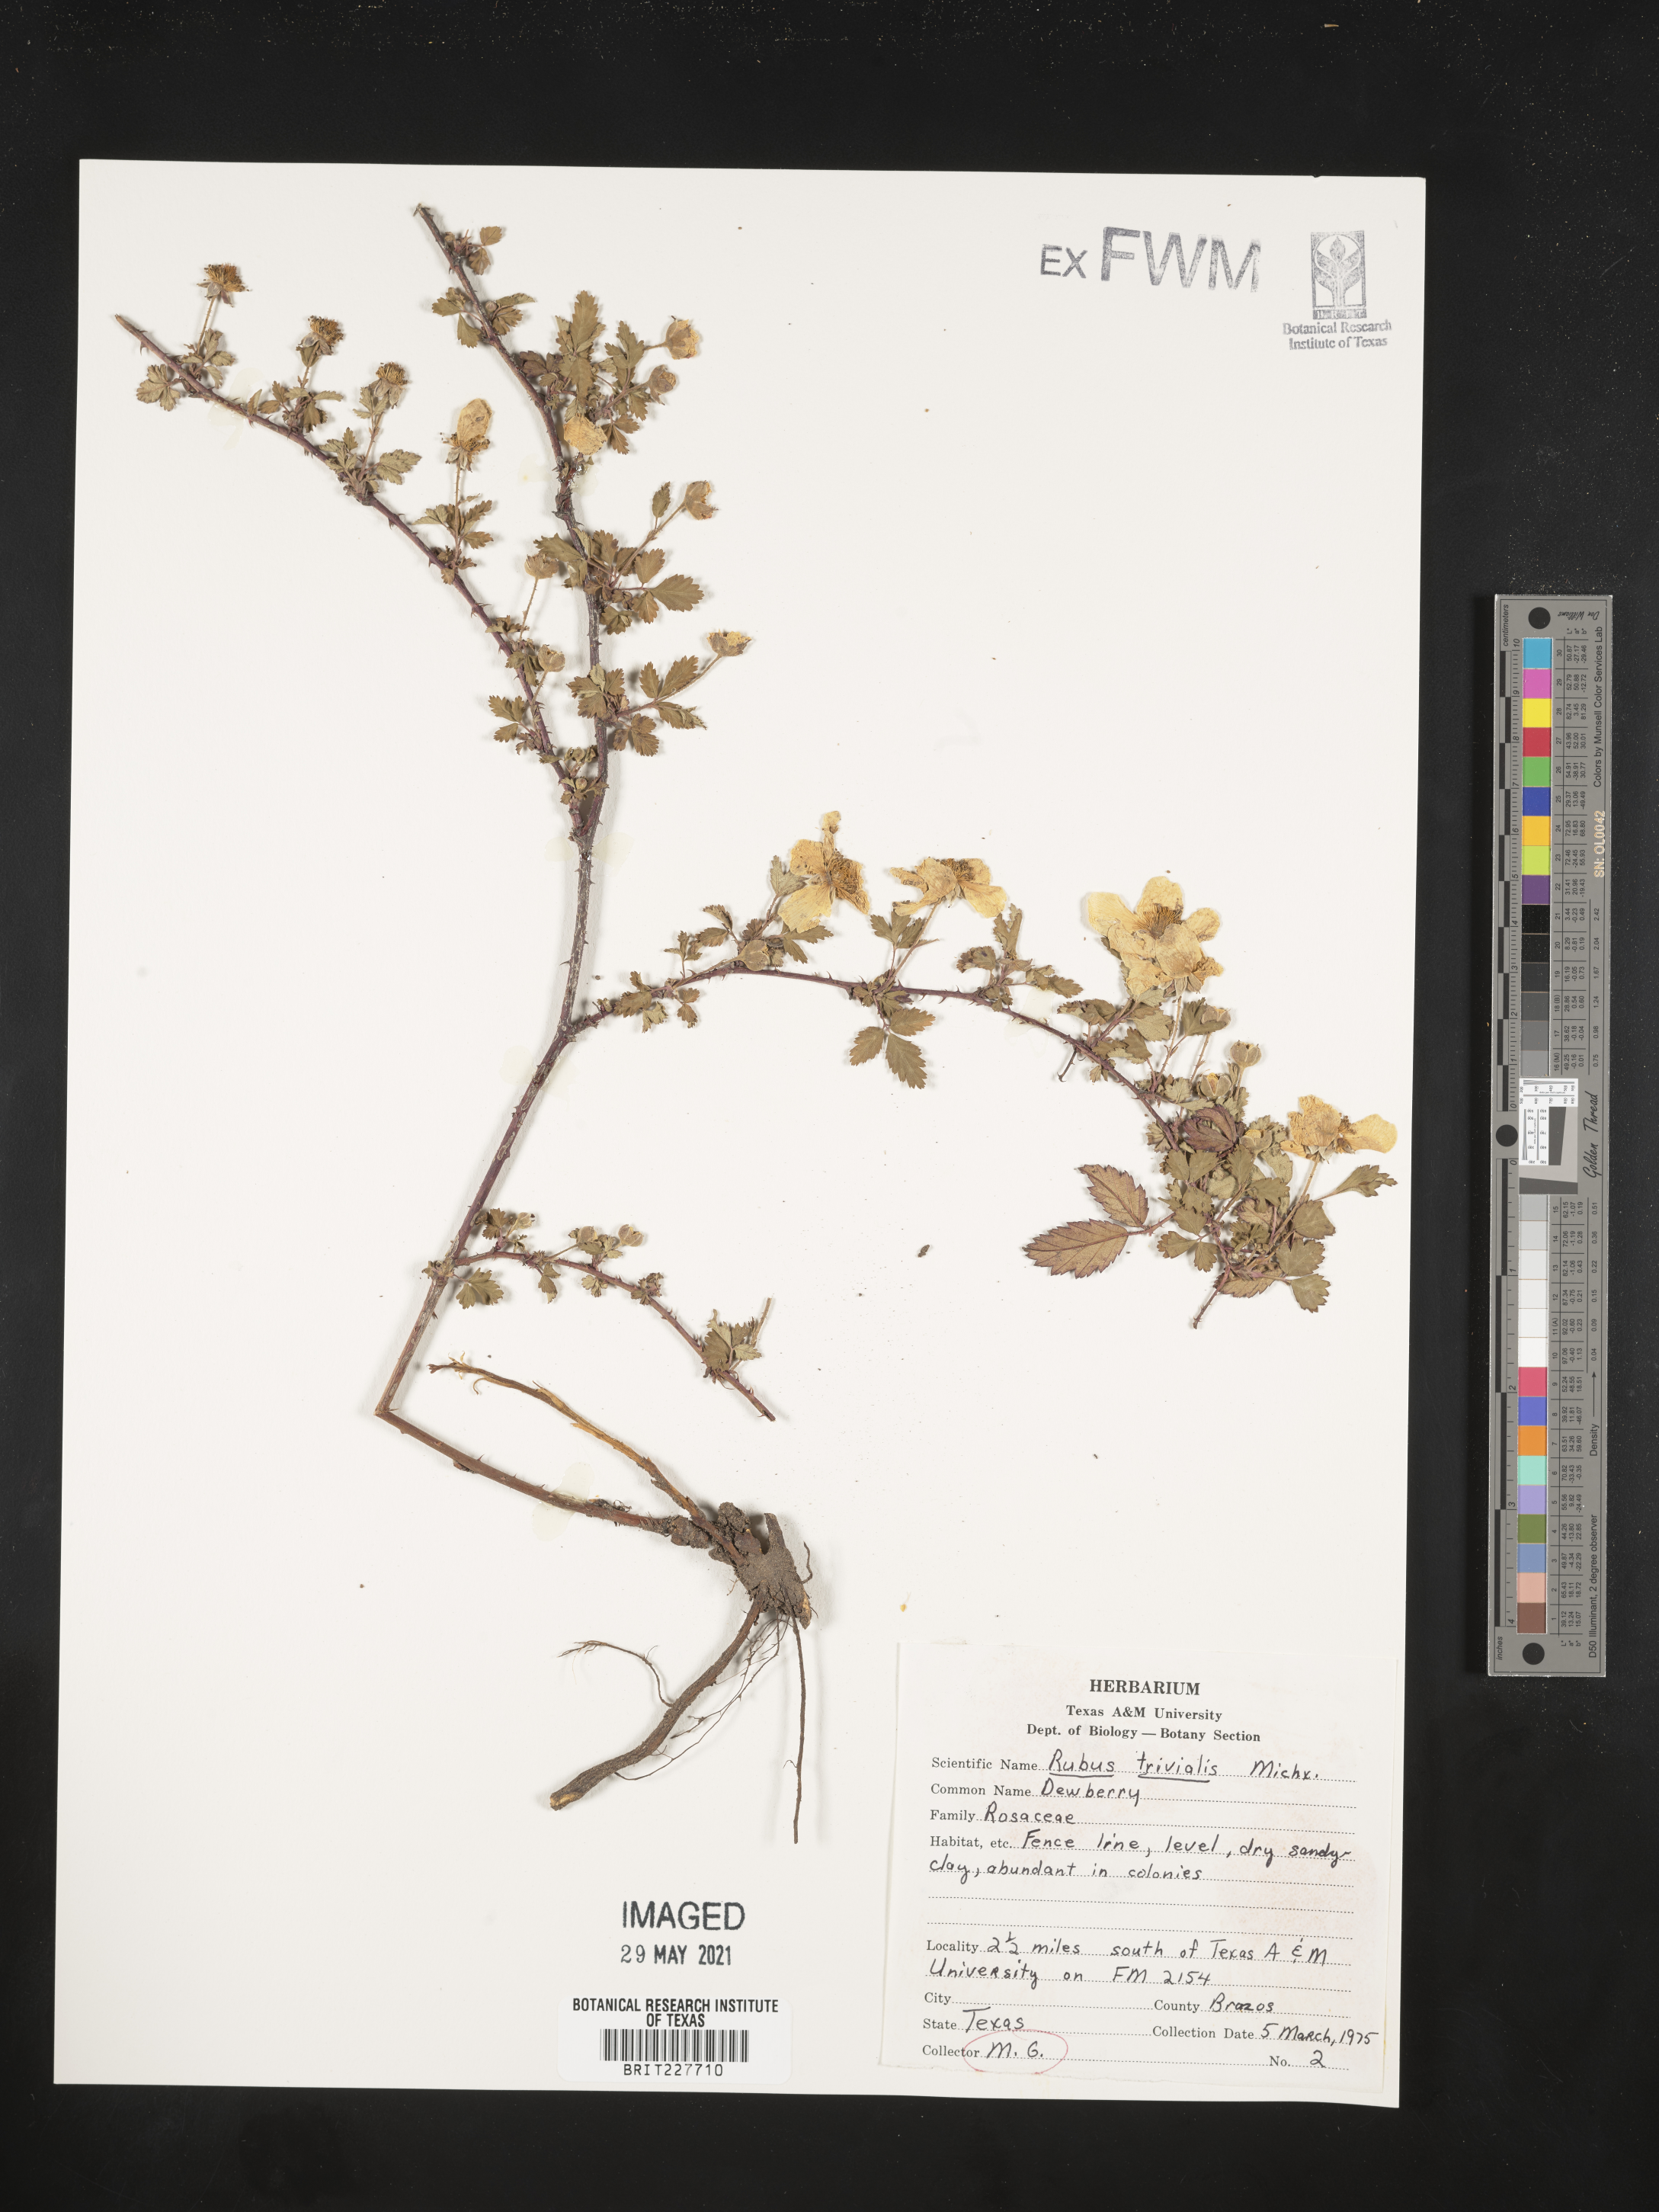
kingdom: Plantae
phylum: Tracheophyta
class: Magnoliopsida
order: Rosales
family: Rosaceae
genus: Rubus
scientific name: Rubus trivialis
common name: Southern dewberry
